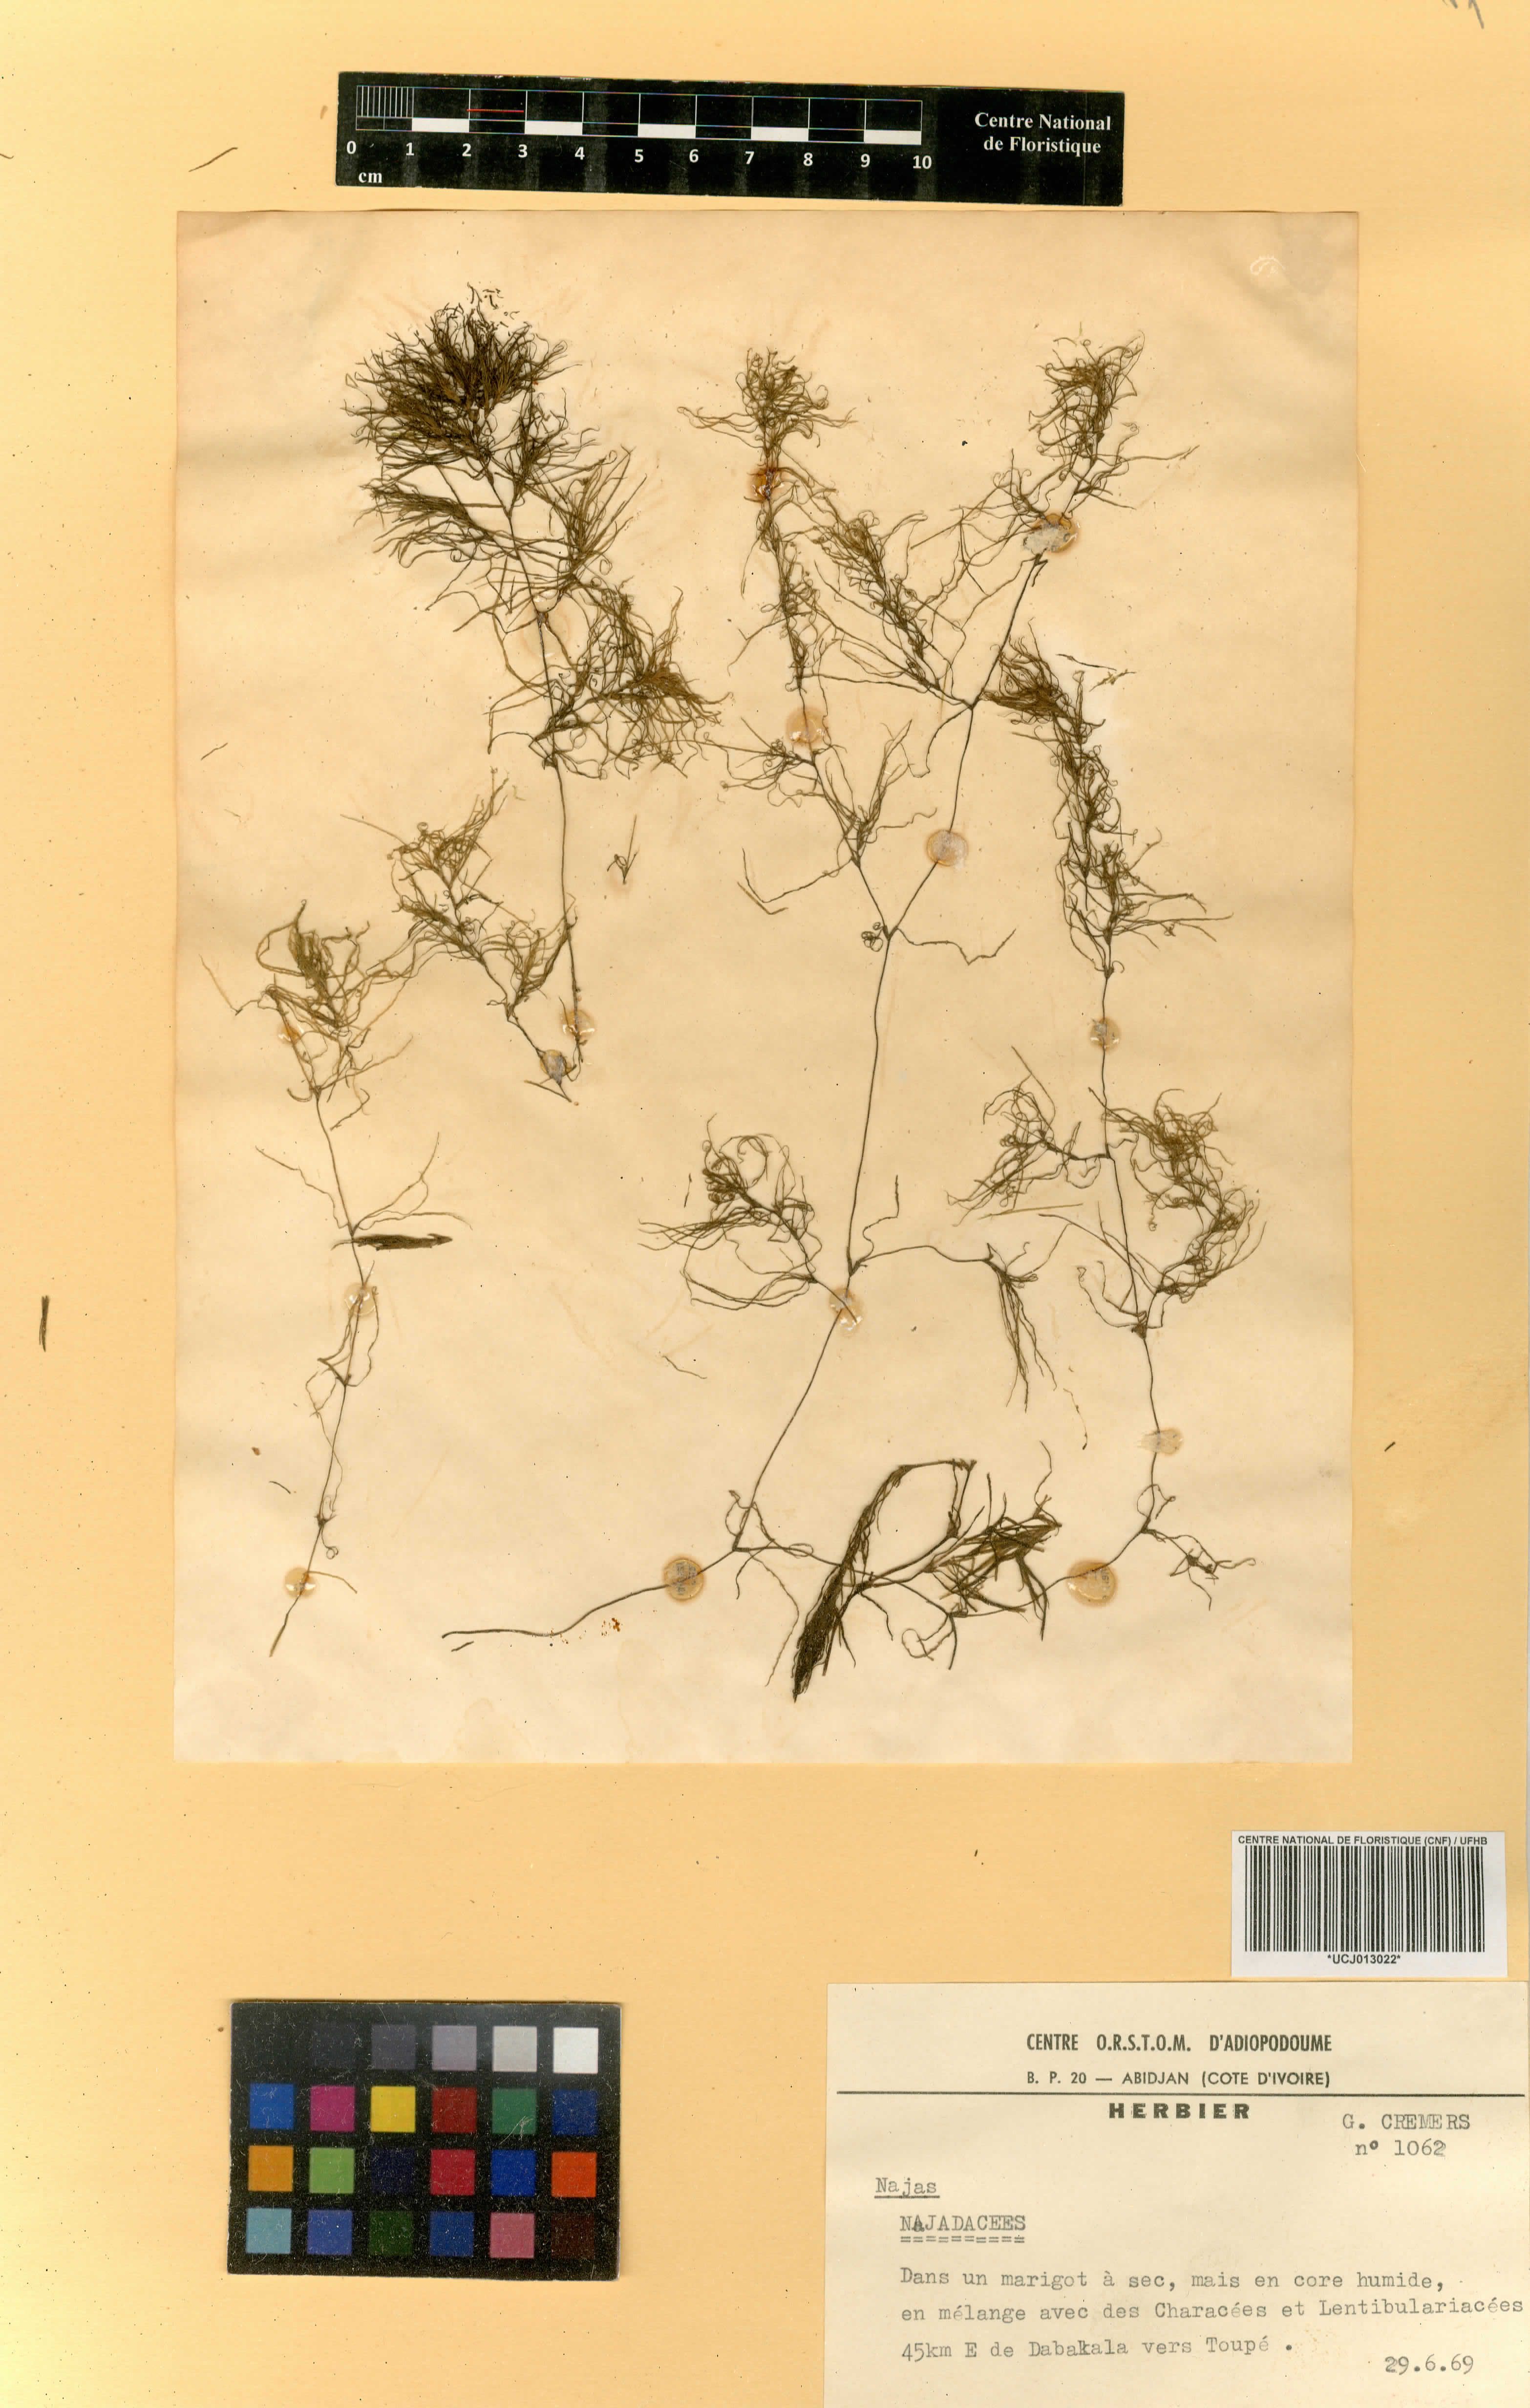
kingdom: Plantae
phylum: Tracheophyta
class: Liliopsida
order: Alismatales
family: Hydrocharitaceae
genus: Najas
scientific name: Najas pectinata
